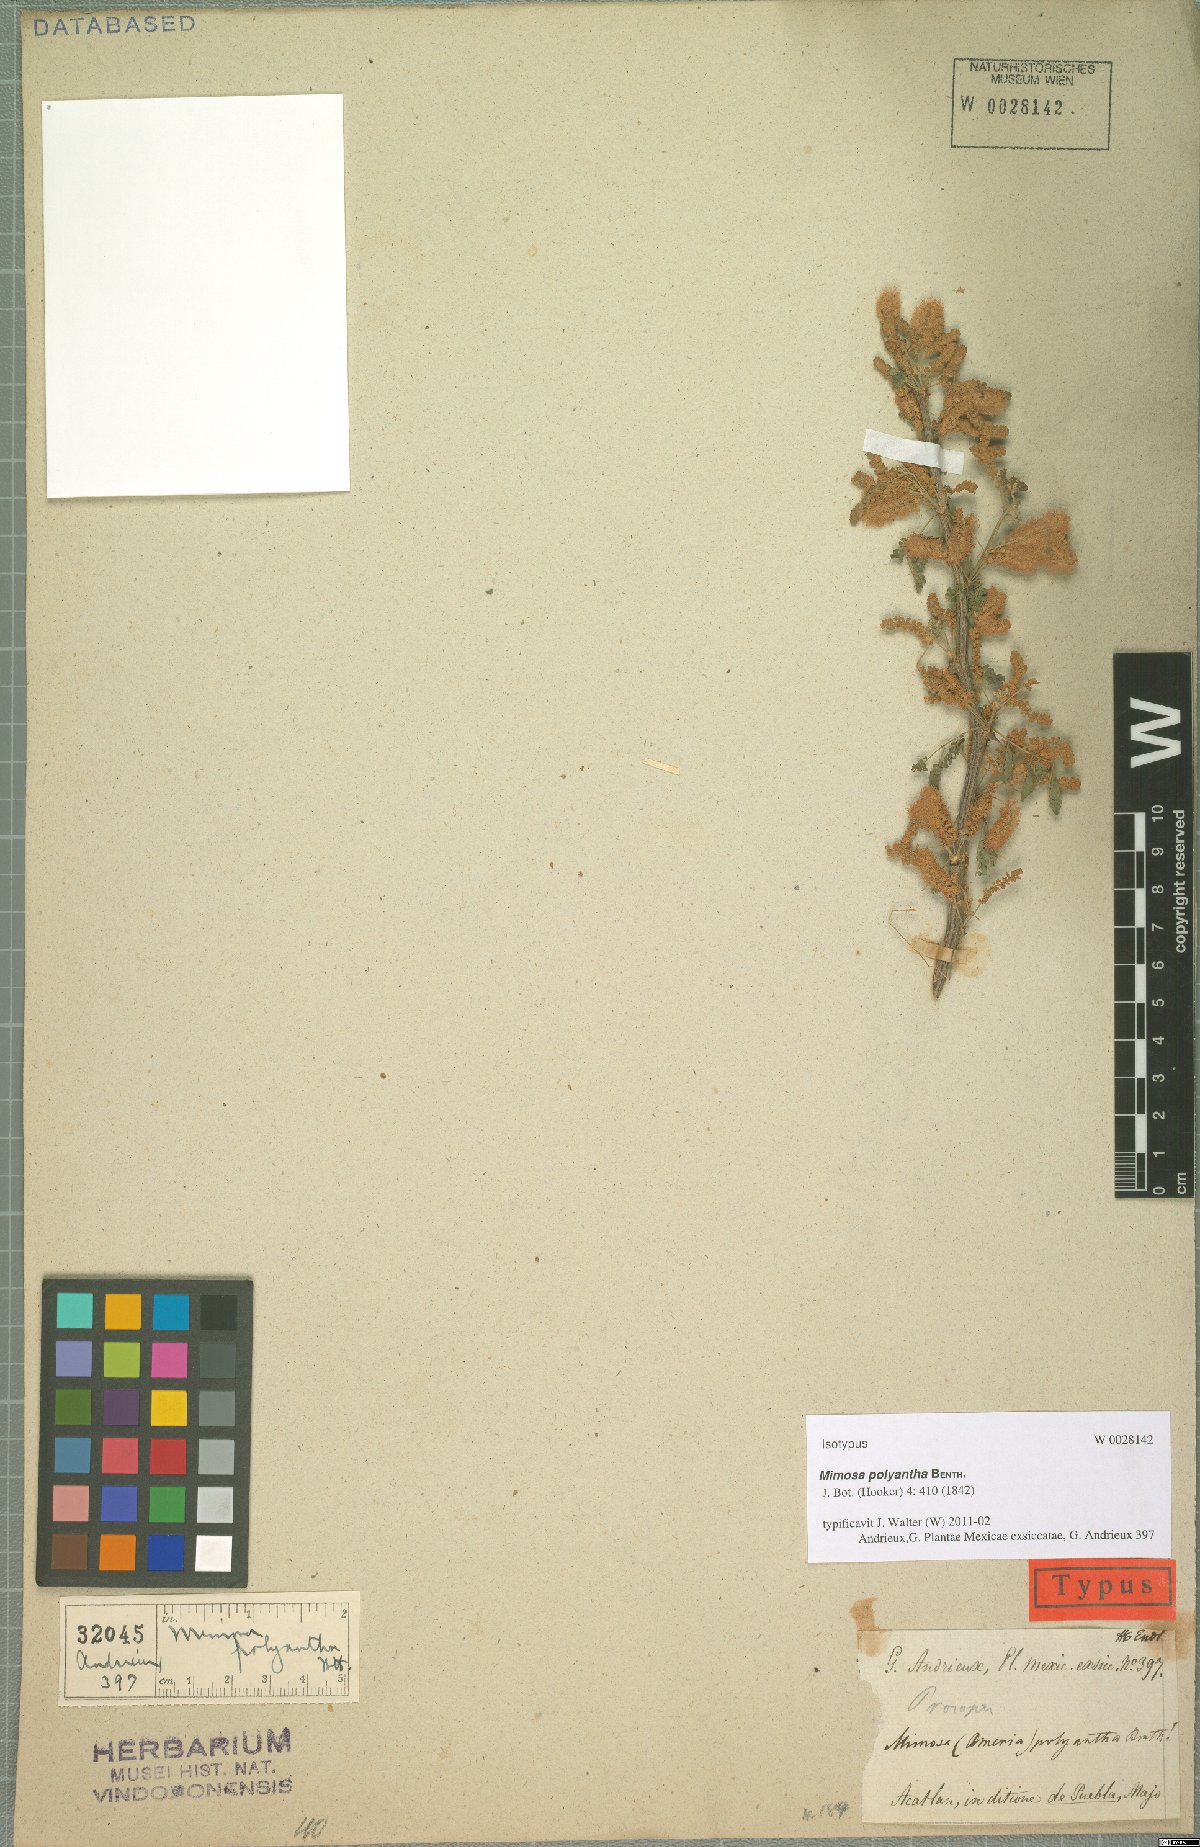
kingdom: Plantae
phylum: Tracheophyta
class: Magnoliopsida
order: Fabales
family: Fabaceae
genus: Mimosa
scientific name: Mimosa polyantha
